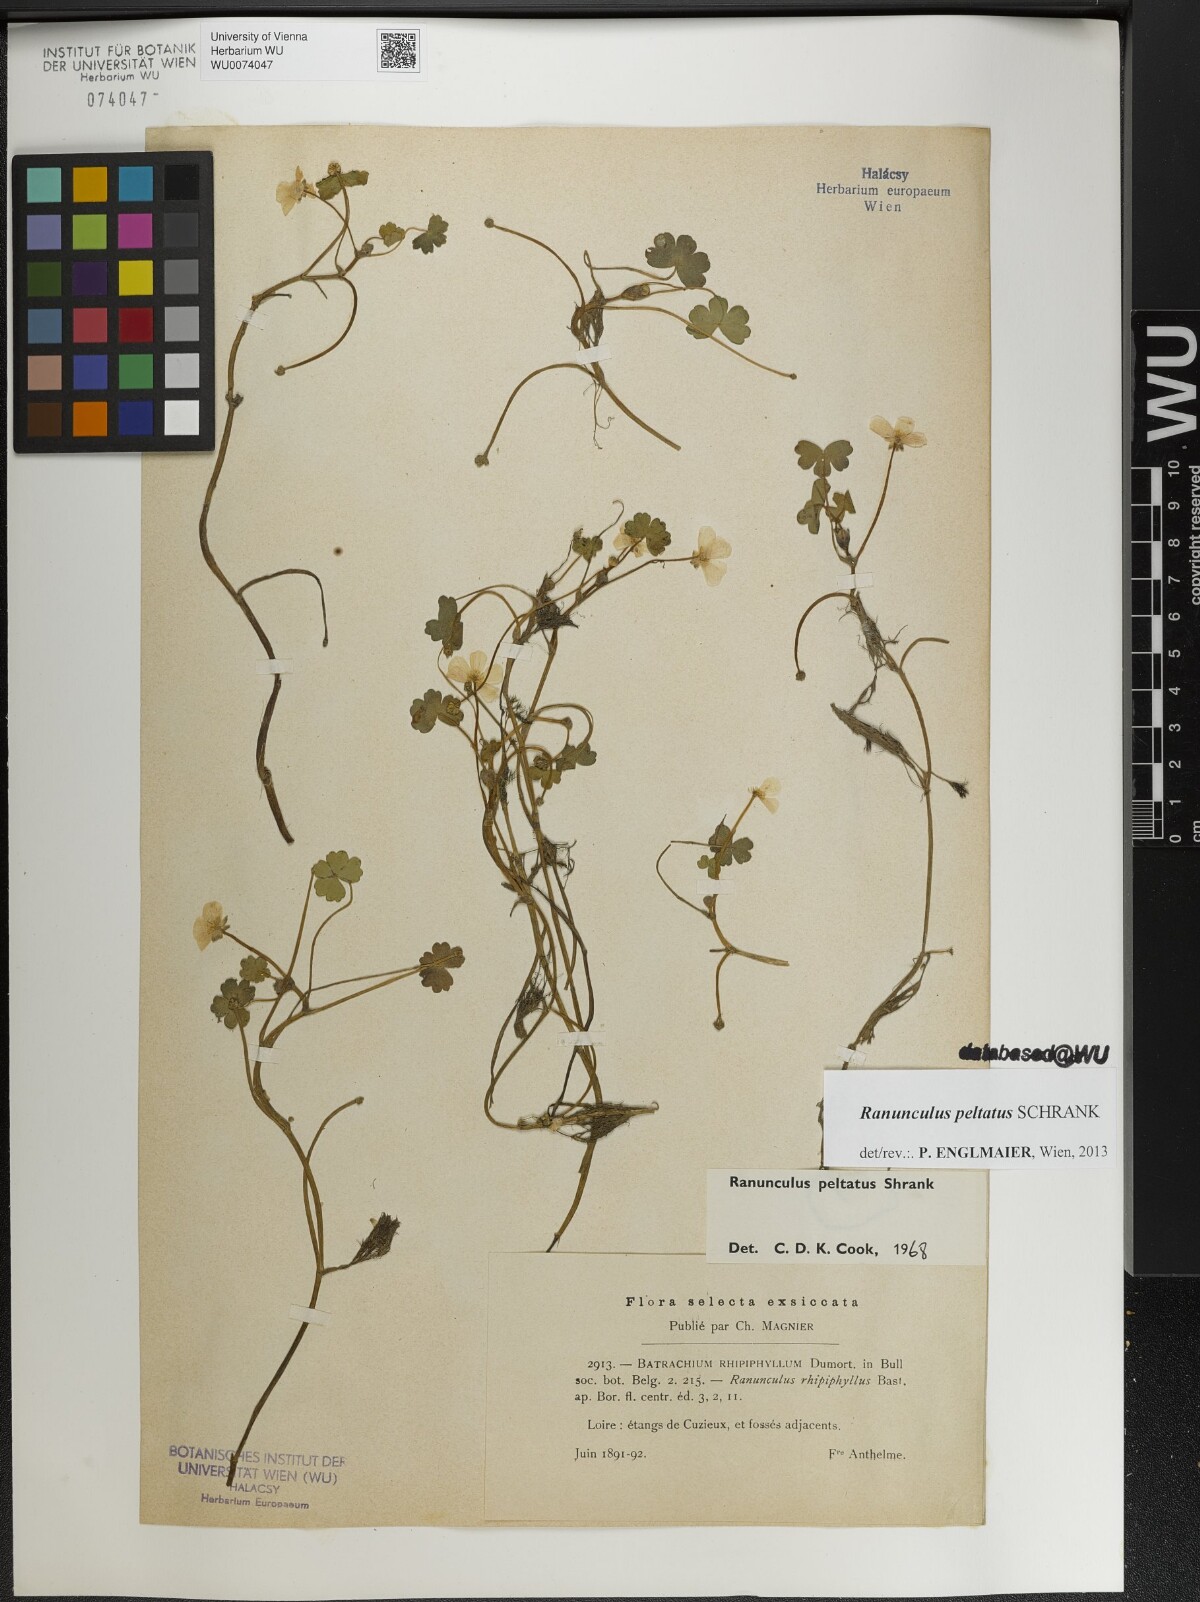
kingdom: Plantae
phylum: Tracheophyta
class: Magnoliopsida
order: Ranunculales
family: Ranunculaceae
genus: Ranunculus
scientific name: Ranunculus peltatus
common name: Pond water-crowfoot
